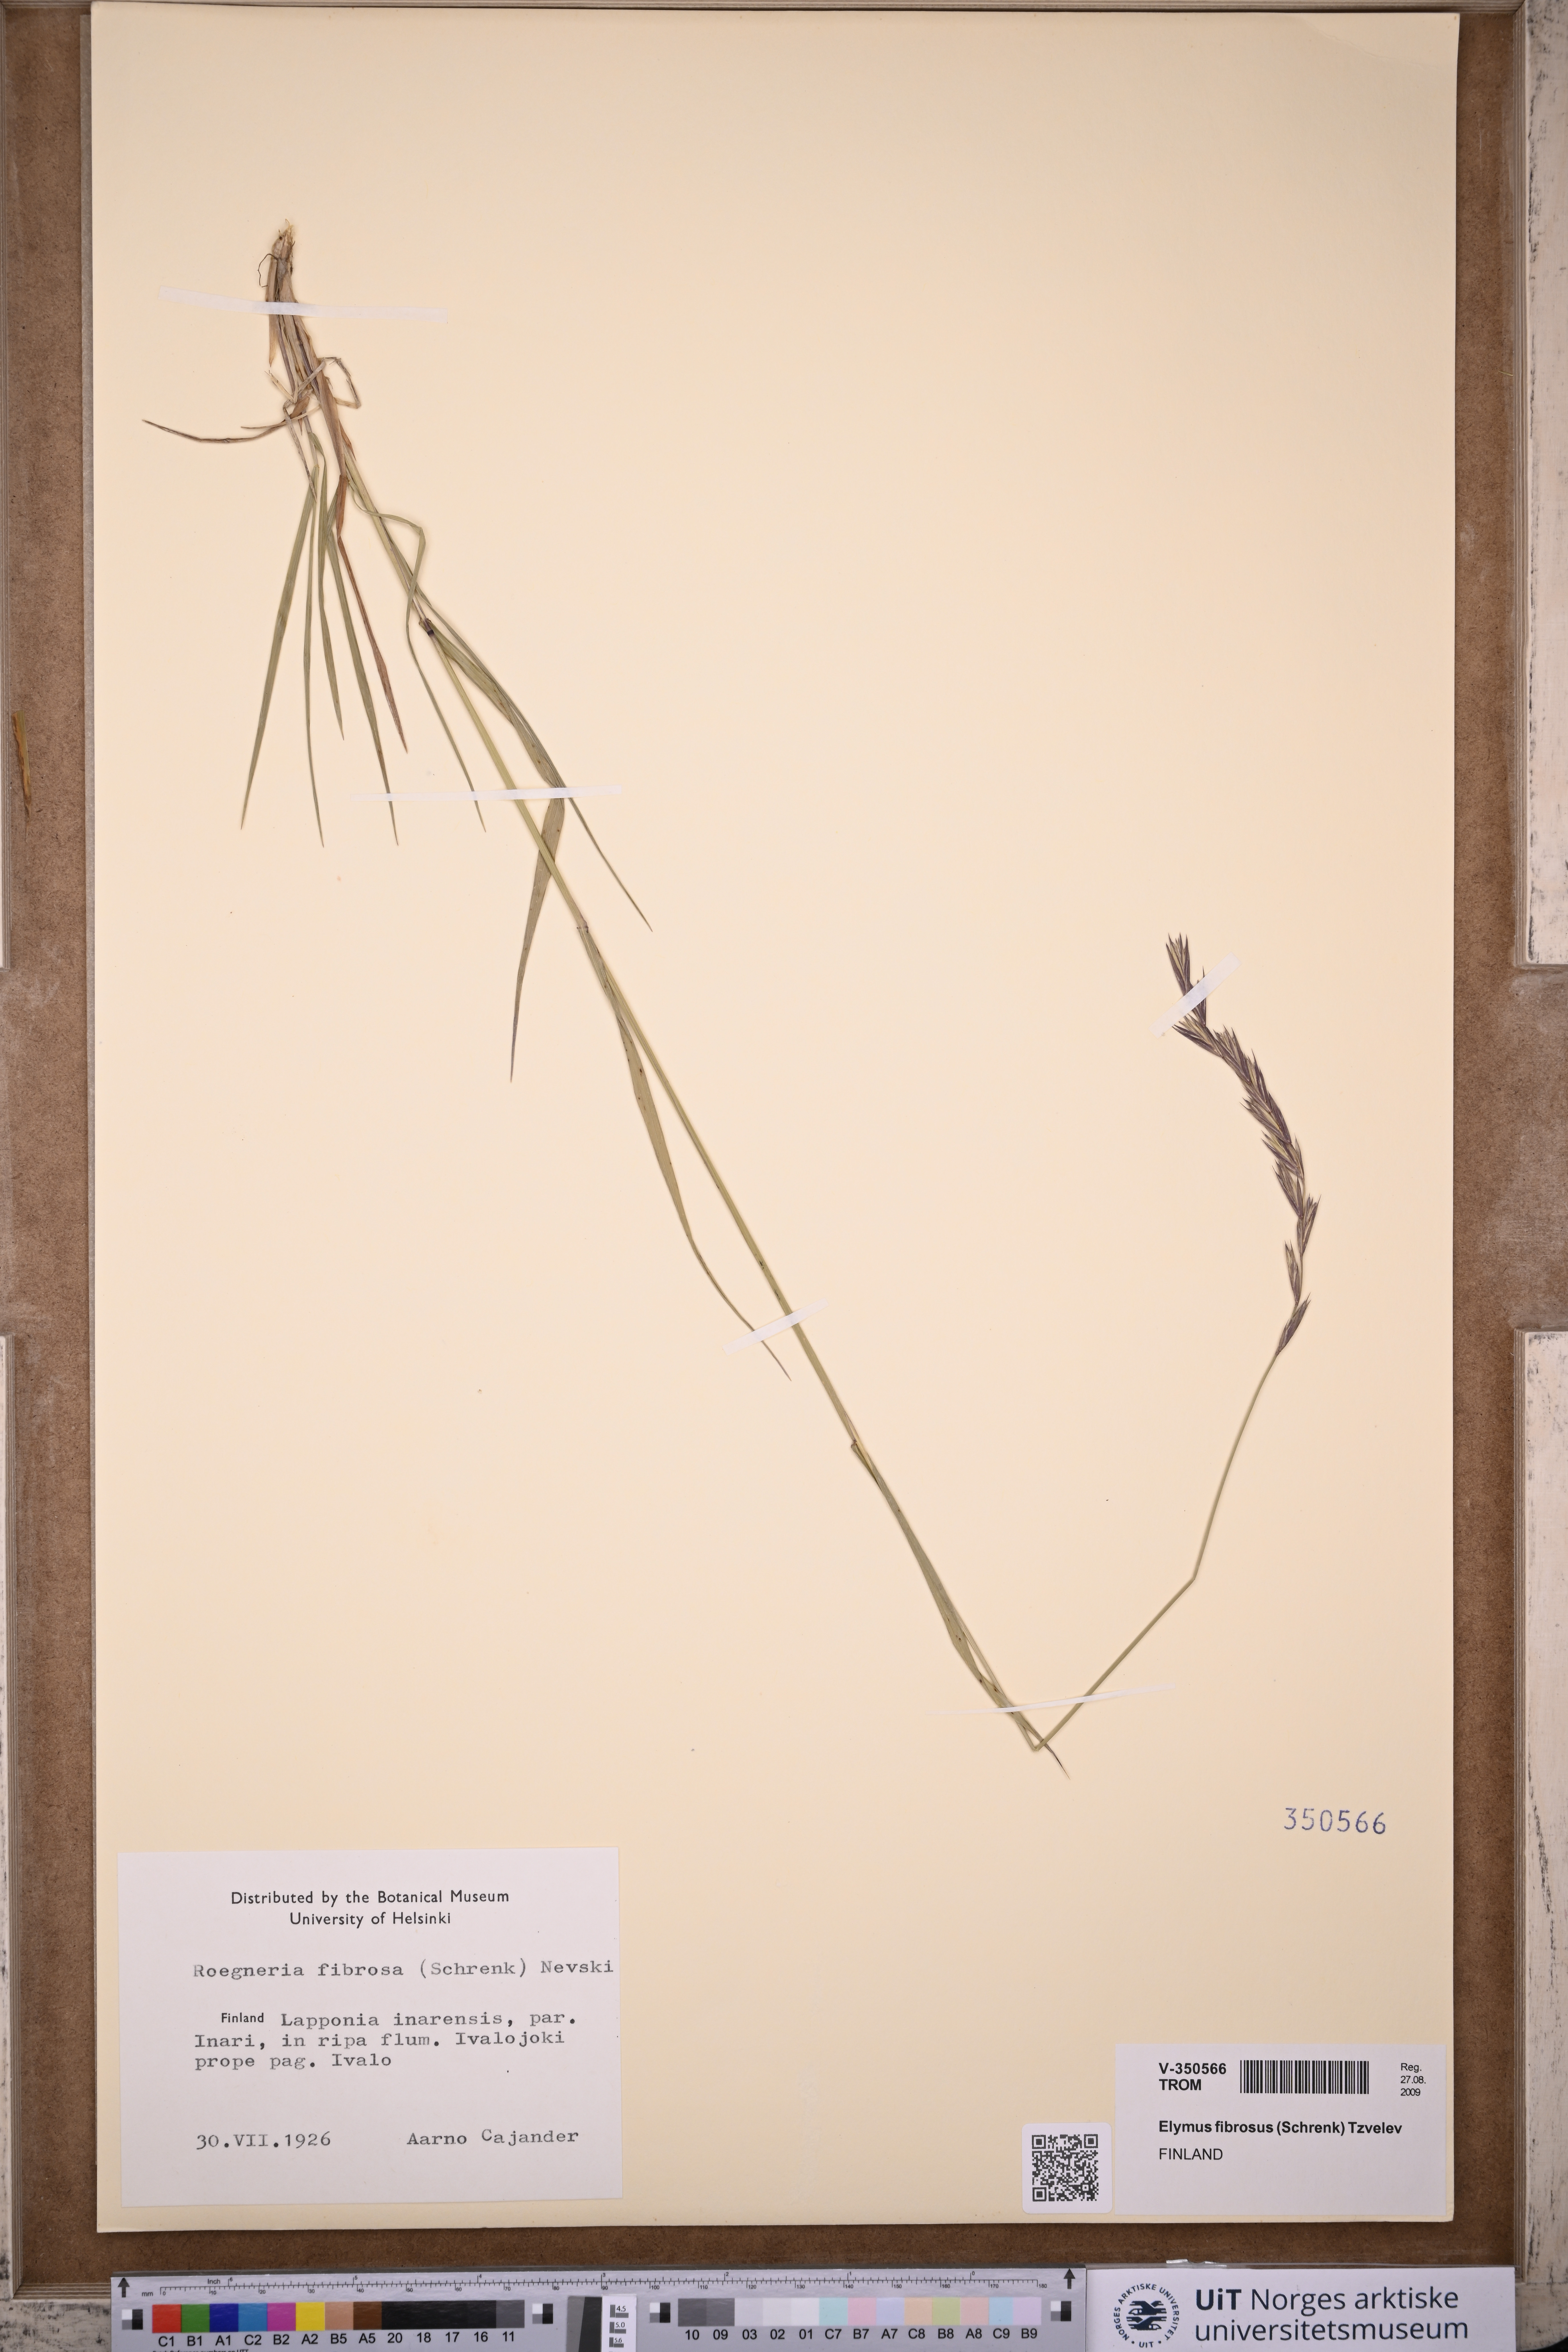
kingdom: Plantae
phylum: Tracheophyta
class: Liliopsida
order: Poales
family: Poaceae
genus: Elymus
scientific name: Elymus fibrosus
